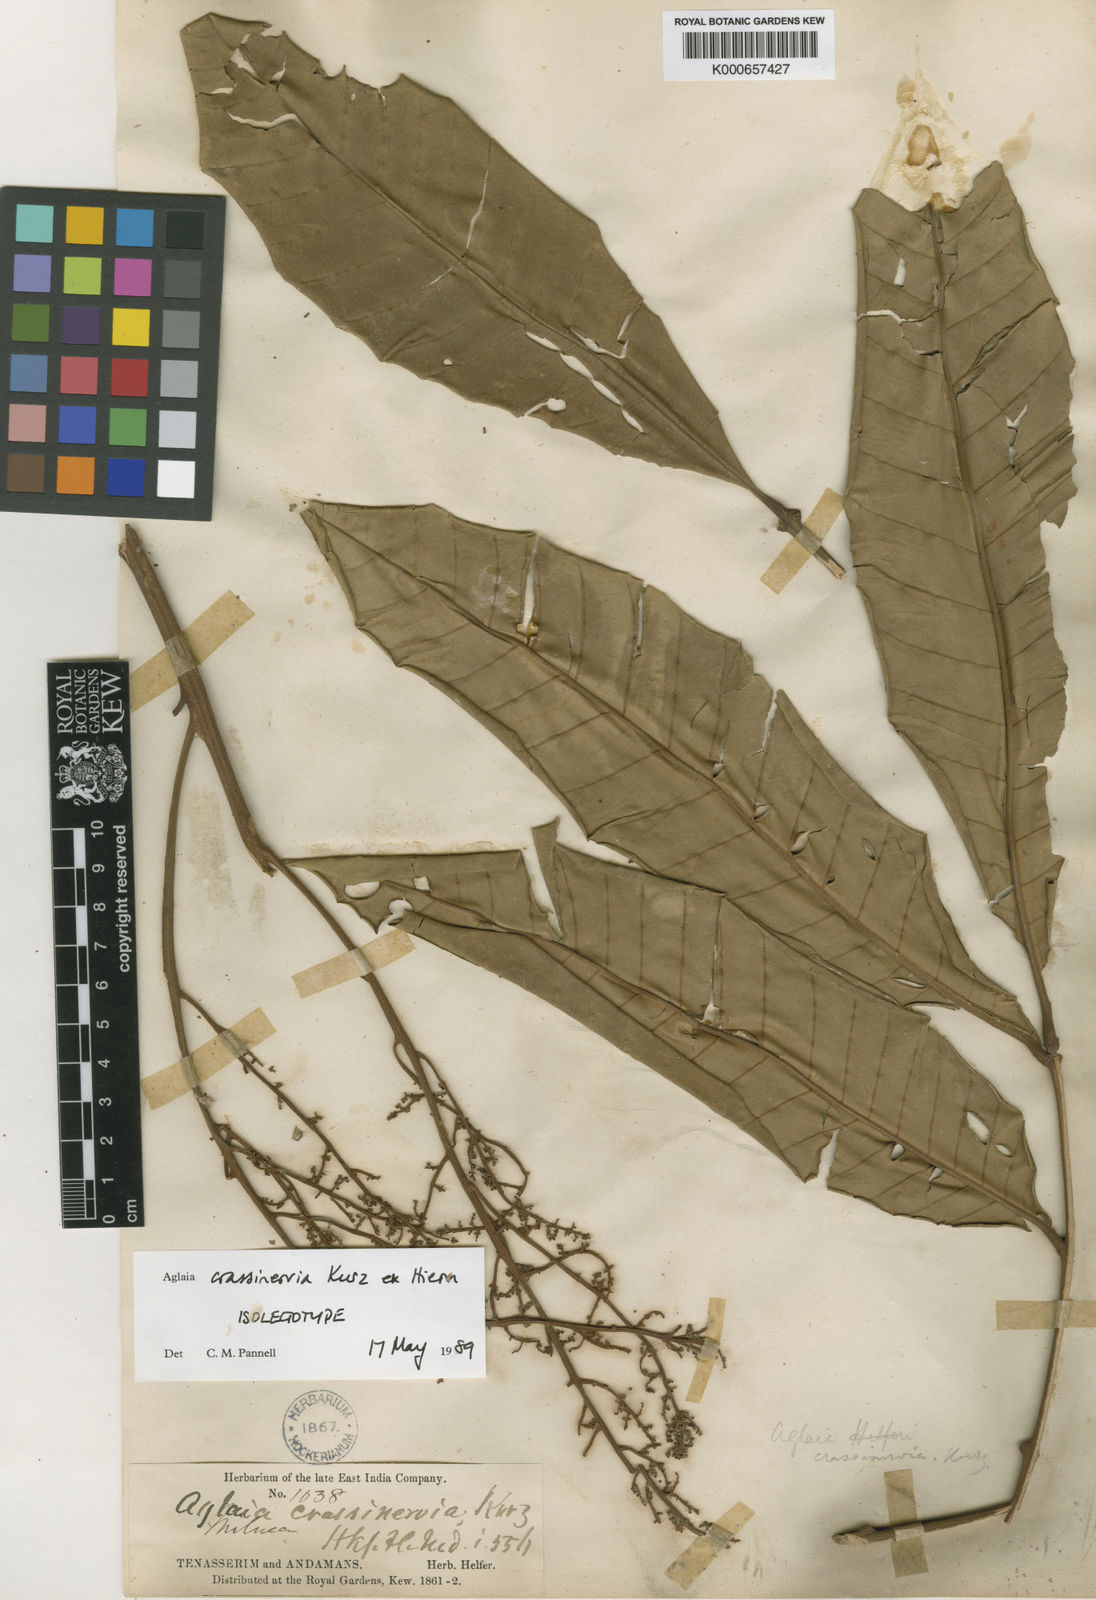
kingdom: Plantae
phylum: Tracheophyta
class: Magnoliopsida
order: Sapindales
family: Meliaceae
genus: Aglaia
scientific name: Aglaia crassinervia
